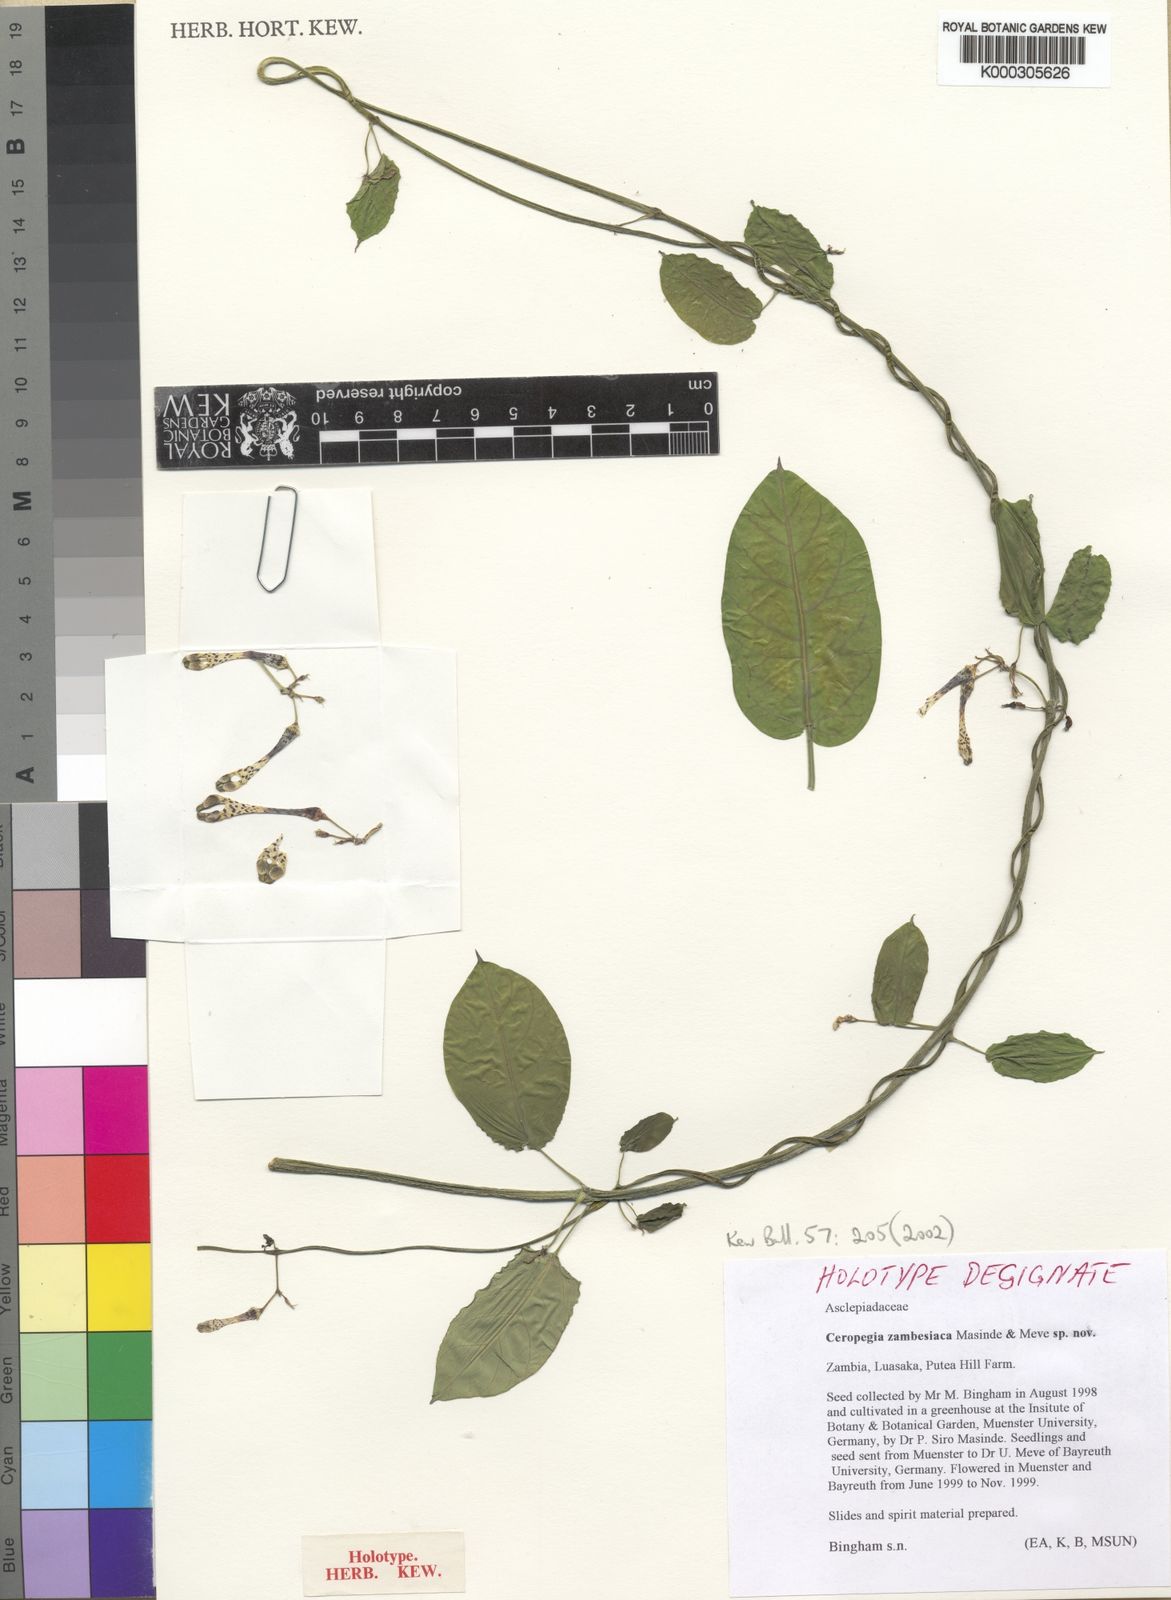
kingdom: Plantae
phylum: Tracheophyta
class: Magnoliopsida
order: Gentianales
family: Apocynaceae
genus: Ceropegia
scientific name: Ceropegia zambesiaca
